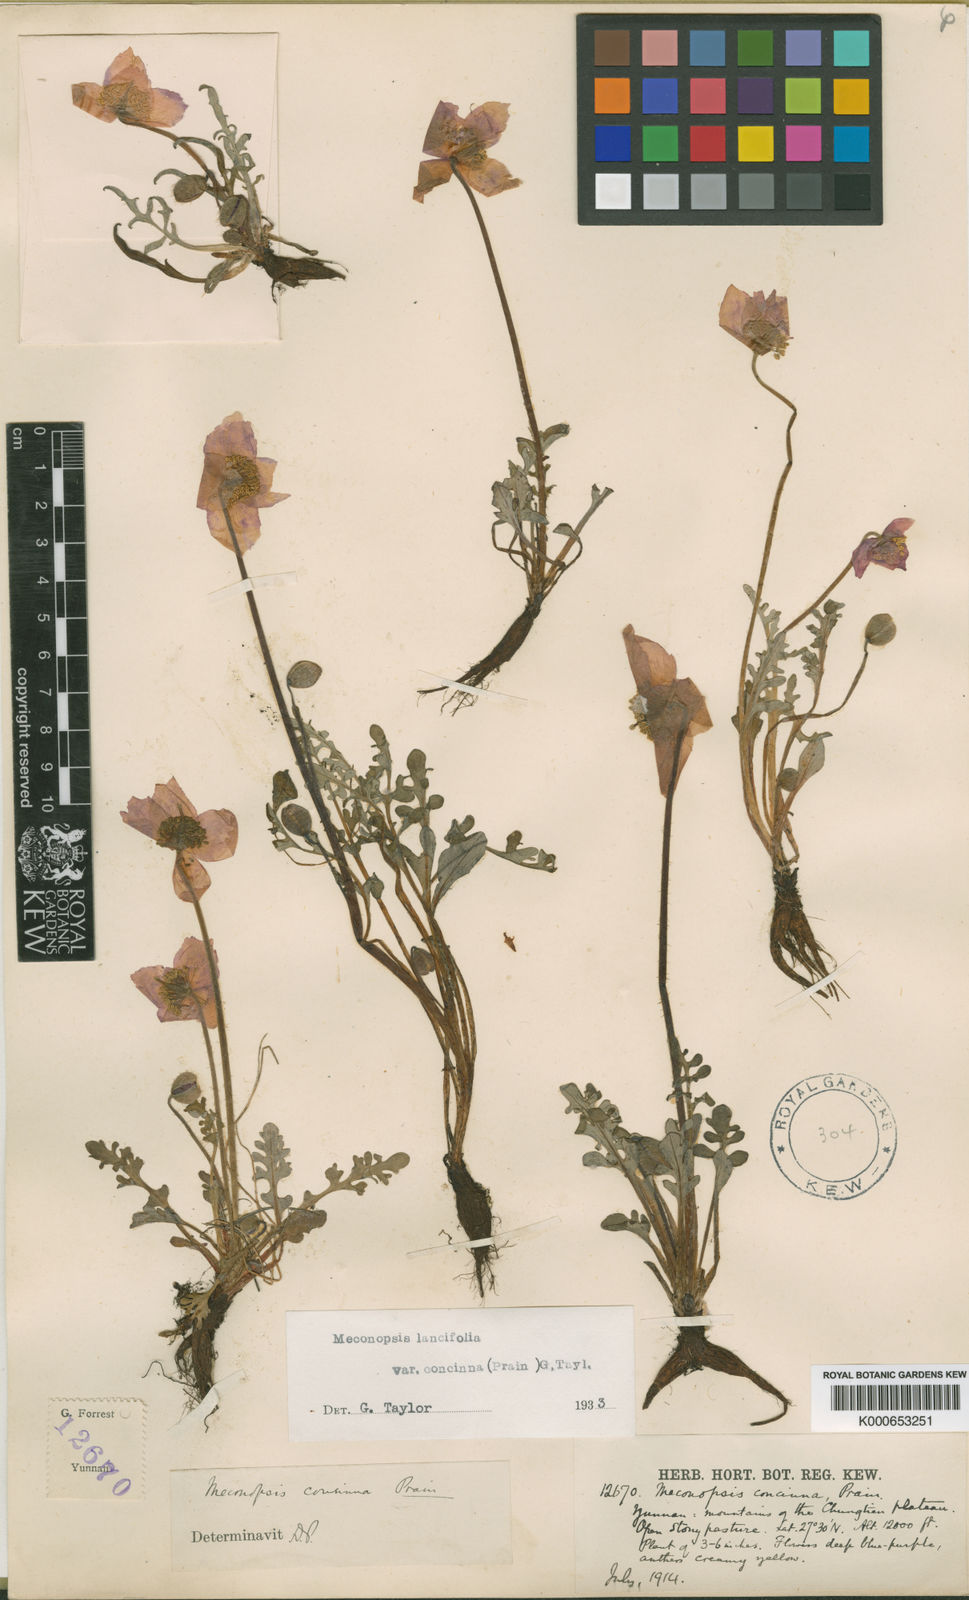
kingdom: Plantae
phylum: Tracheophyta
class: Magnoliopsida
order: Ranunculales
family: Papaveraceae
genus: Meconopsis
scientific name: Meconopsis lancifolia
